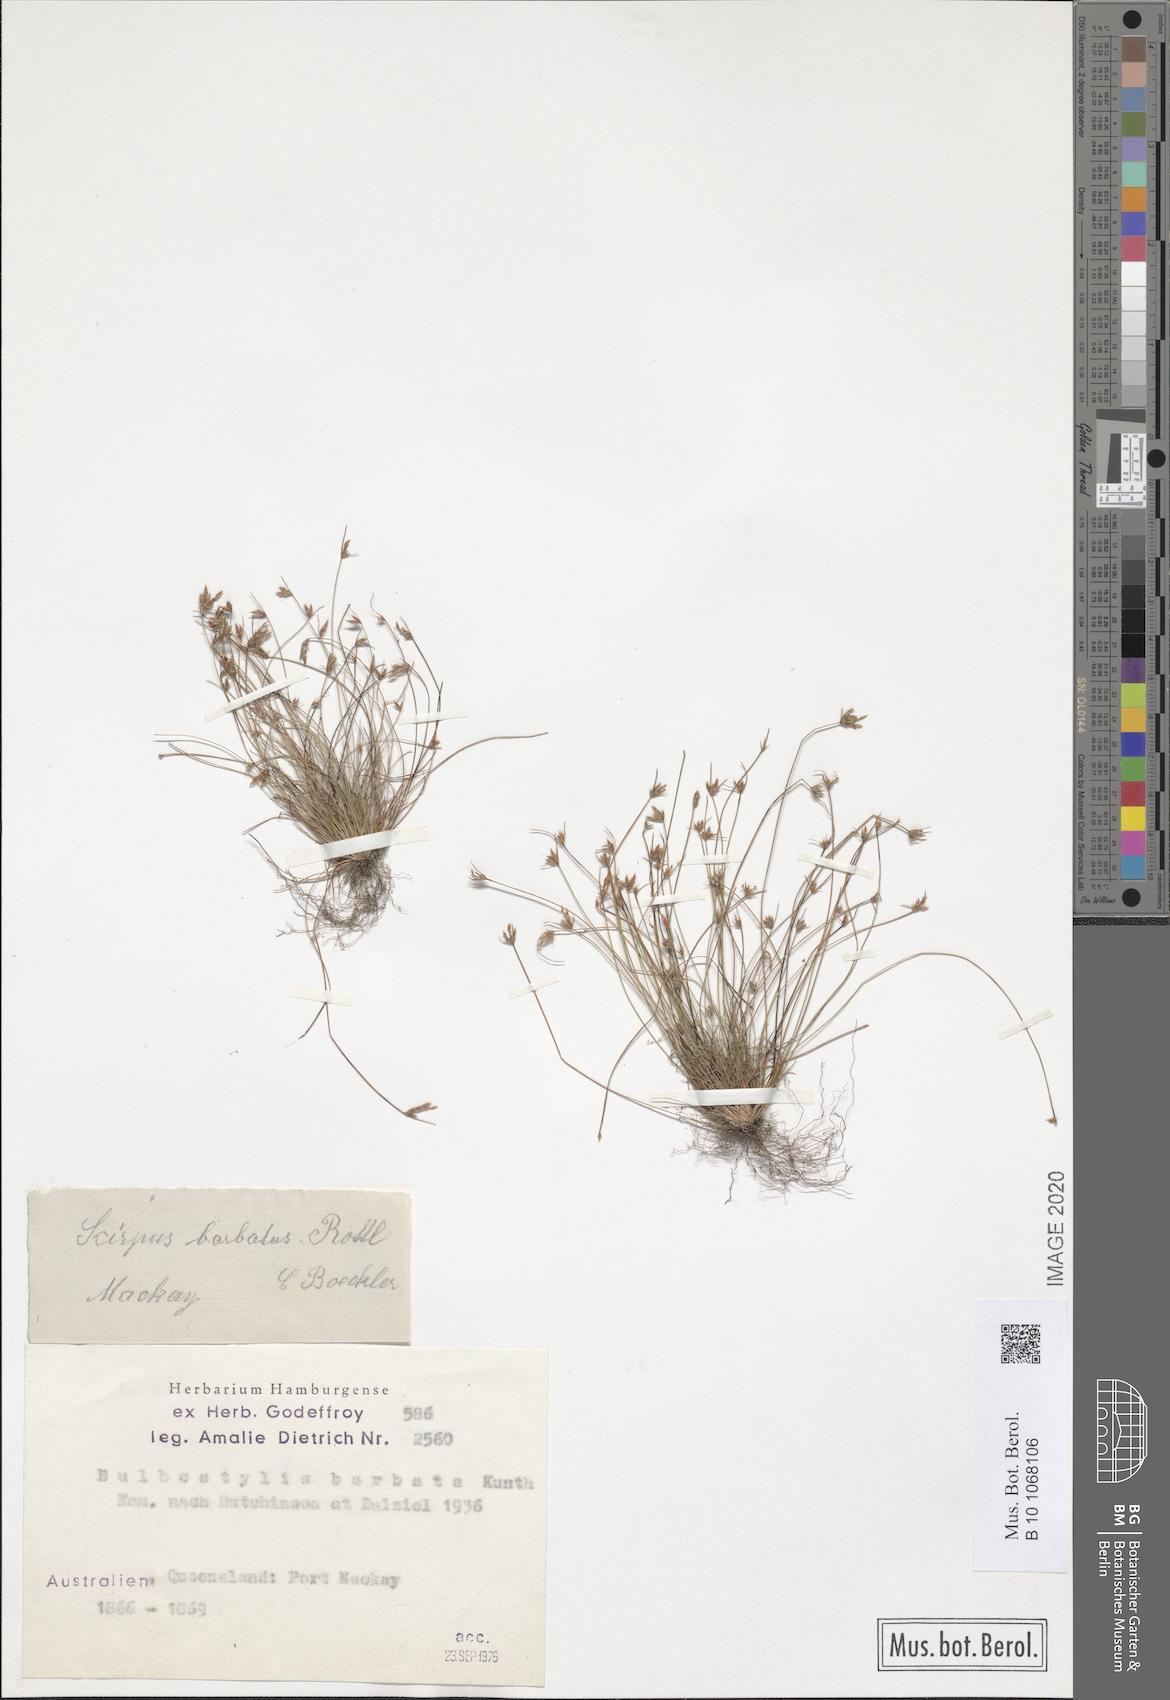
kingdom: Plantae
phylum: Tracheophyta
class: Liliopsida
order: Poales
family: Cyperaceae
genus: Bulbostylis
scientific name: Bulbostylis barbata
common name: Watergrass
